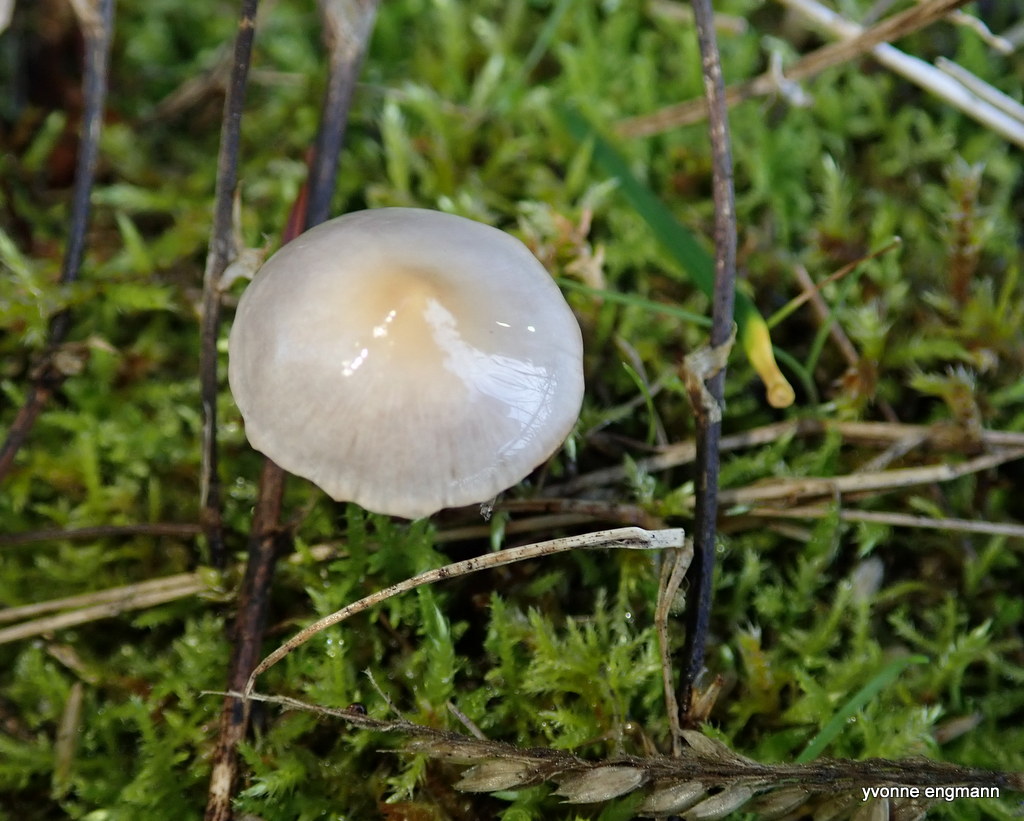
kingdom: Fungi
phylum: Basidiomycota
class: Agaricomycetes
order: Agaricales
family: Inocybaceae
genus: Inocybe
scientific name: Inocybe
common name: trævlhat
